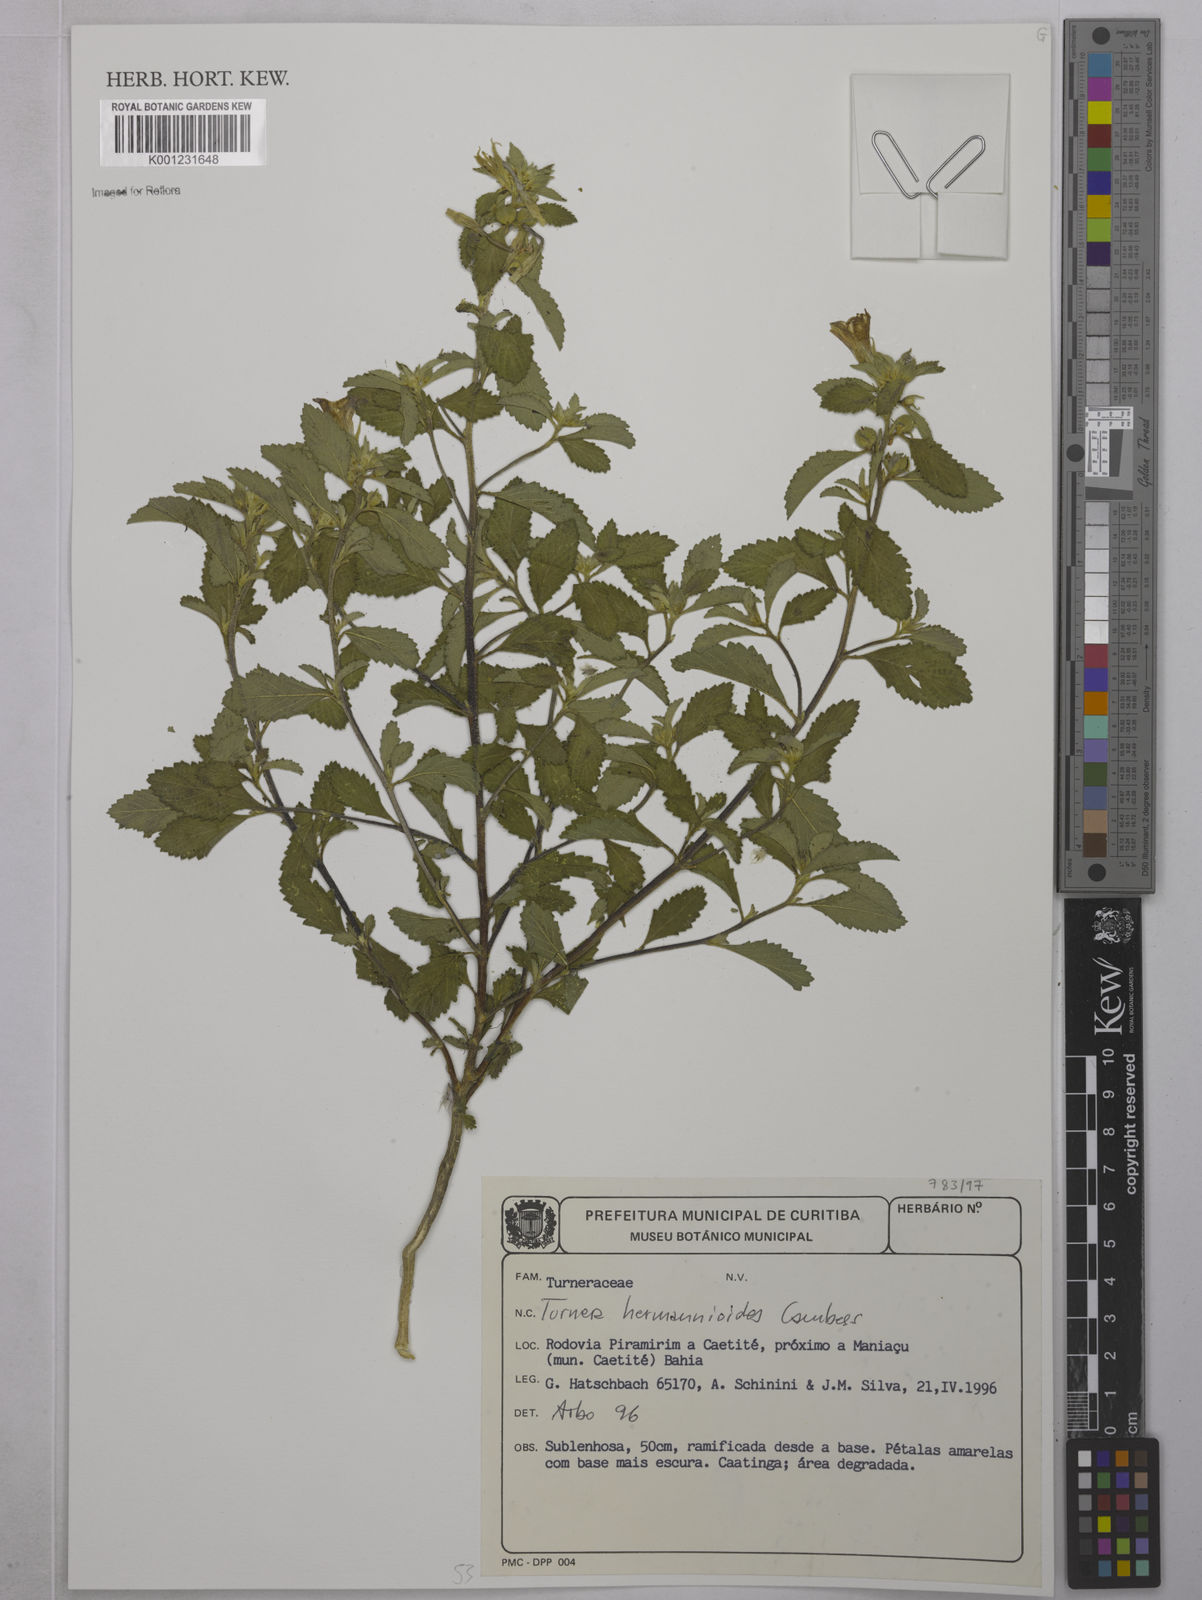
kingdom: Plantae
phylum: Tracheophyta
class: Magnoliopsida
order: Malpighiales
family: Turneraceae
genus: Turnera
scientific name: Turnera hermannioides
